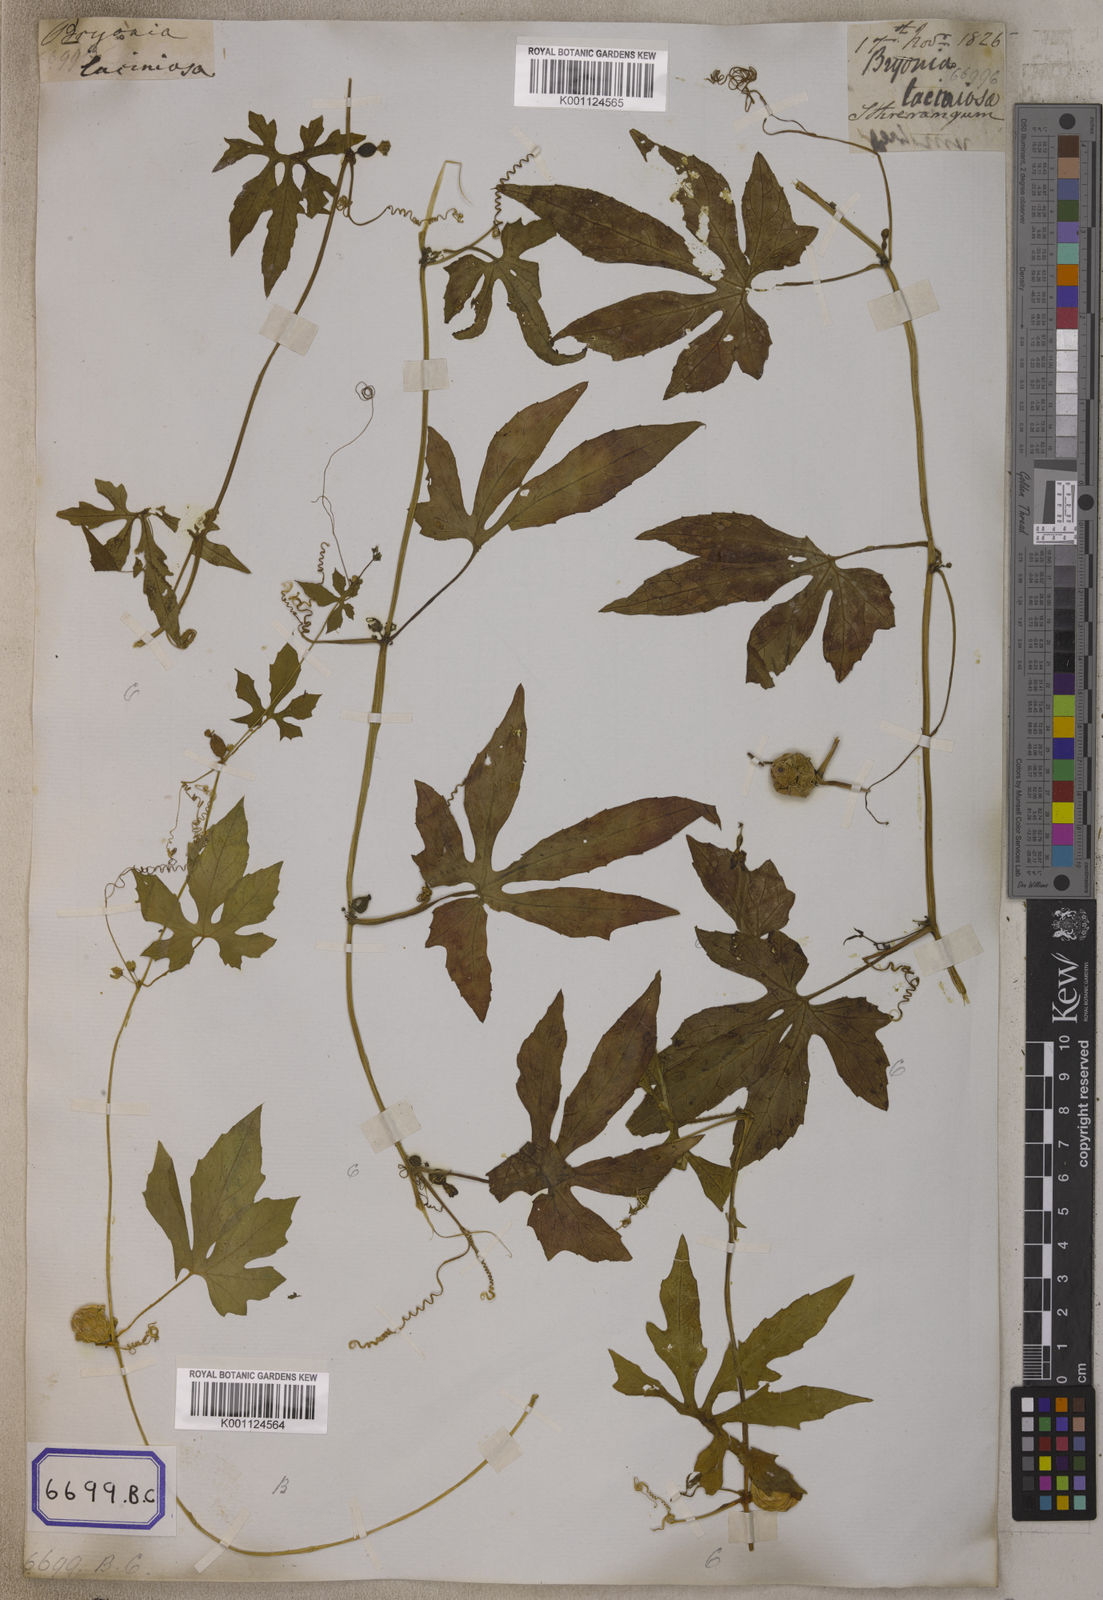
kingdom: Plantae
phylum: Tracheophyta
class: Magnoliopsida
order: Cucurbitales
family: Cucurbitaceae
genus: Diplocyclos
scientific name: Diplocyclos palmatus
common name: Striped-cucumber
